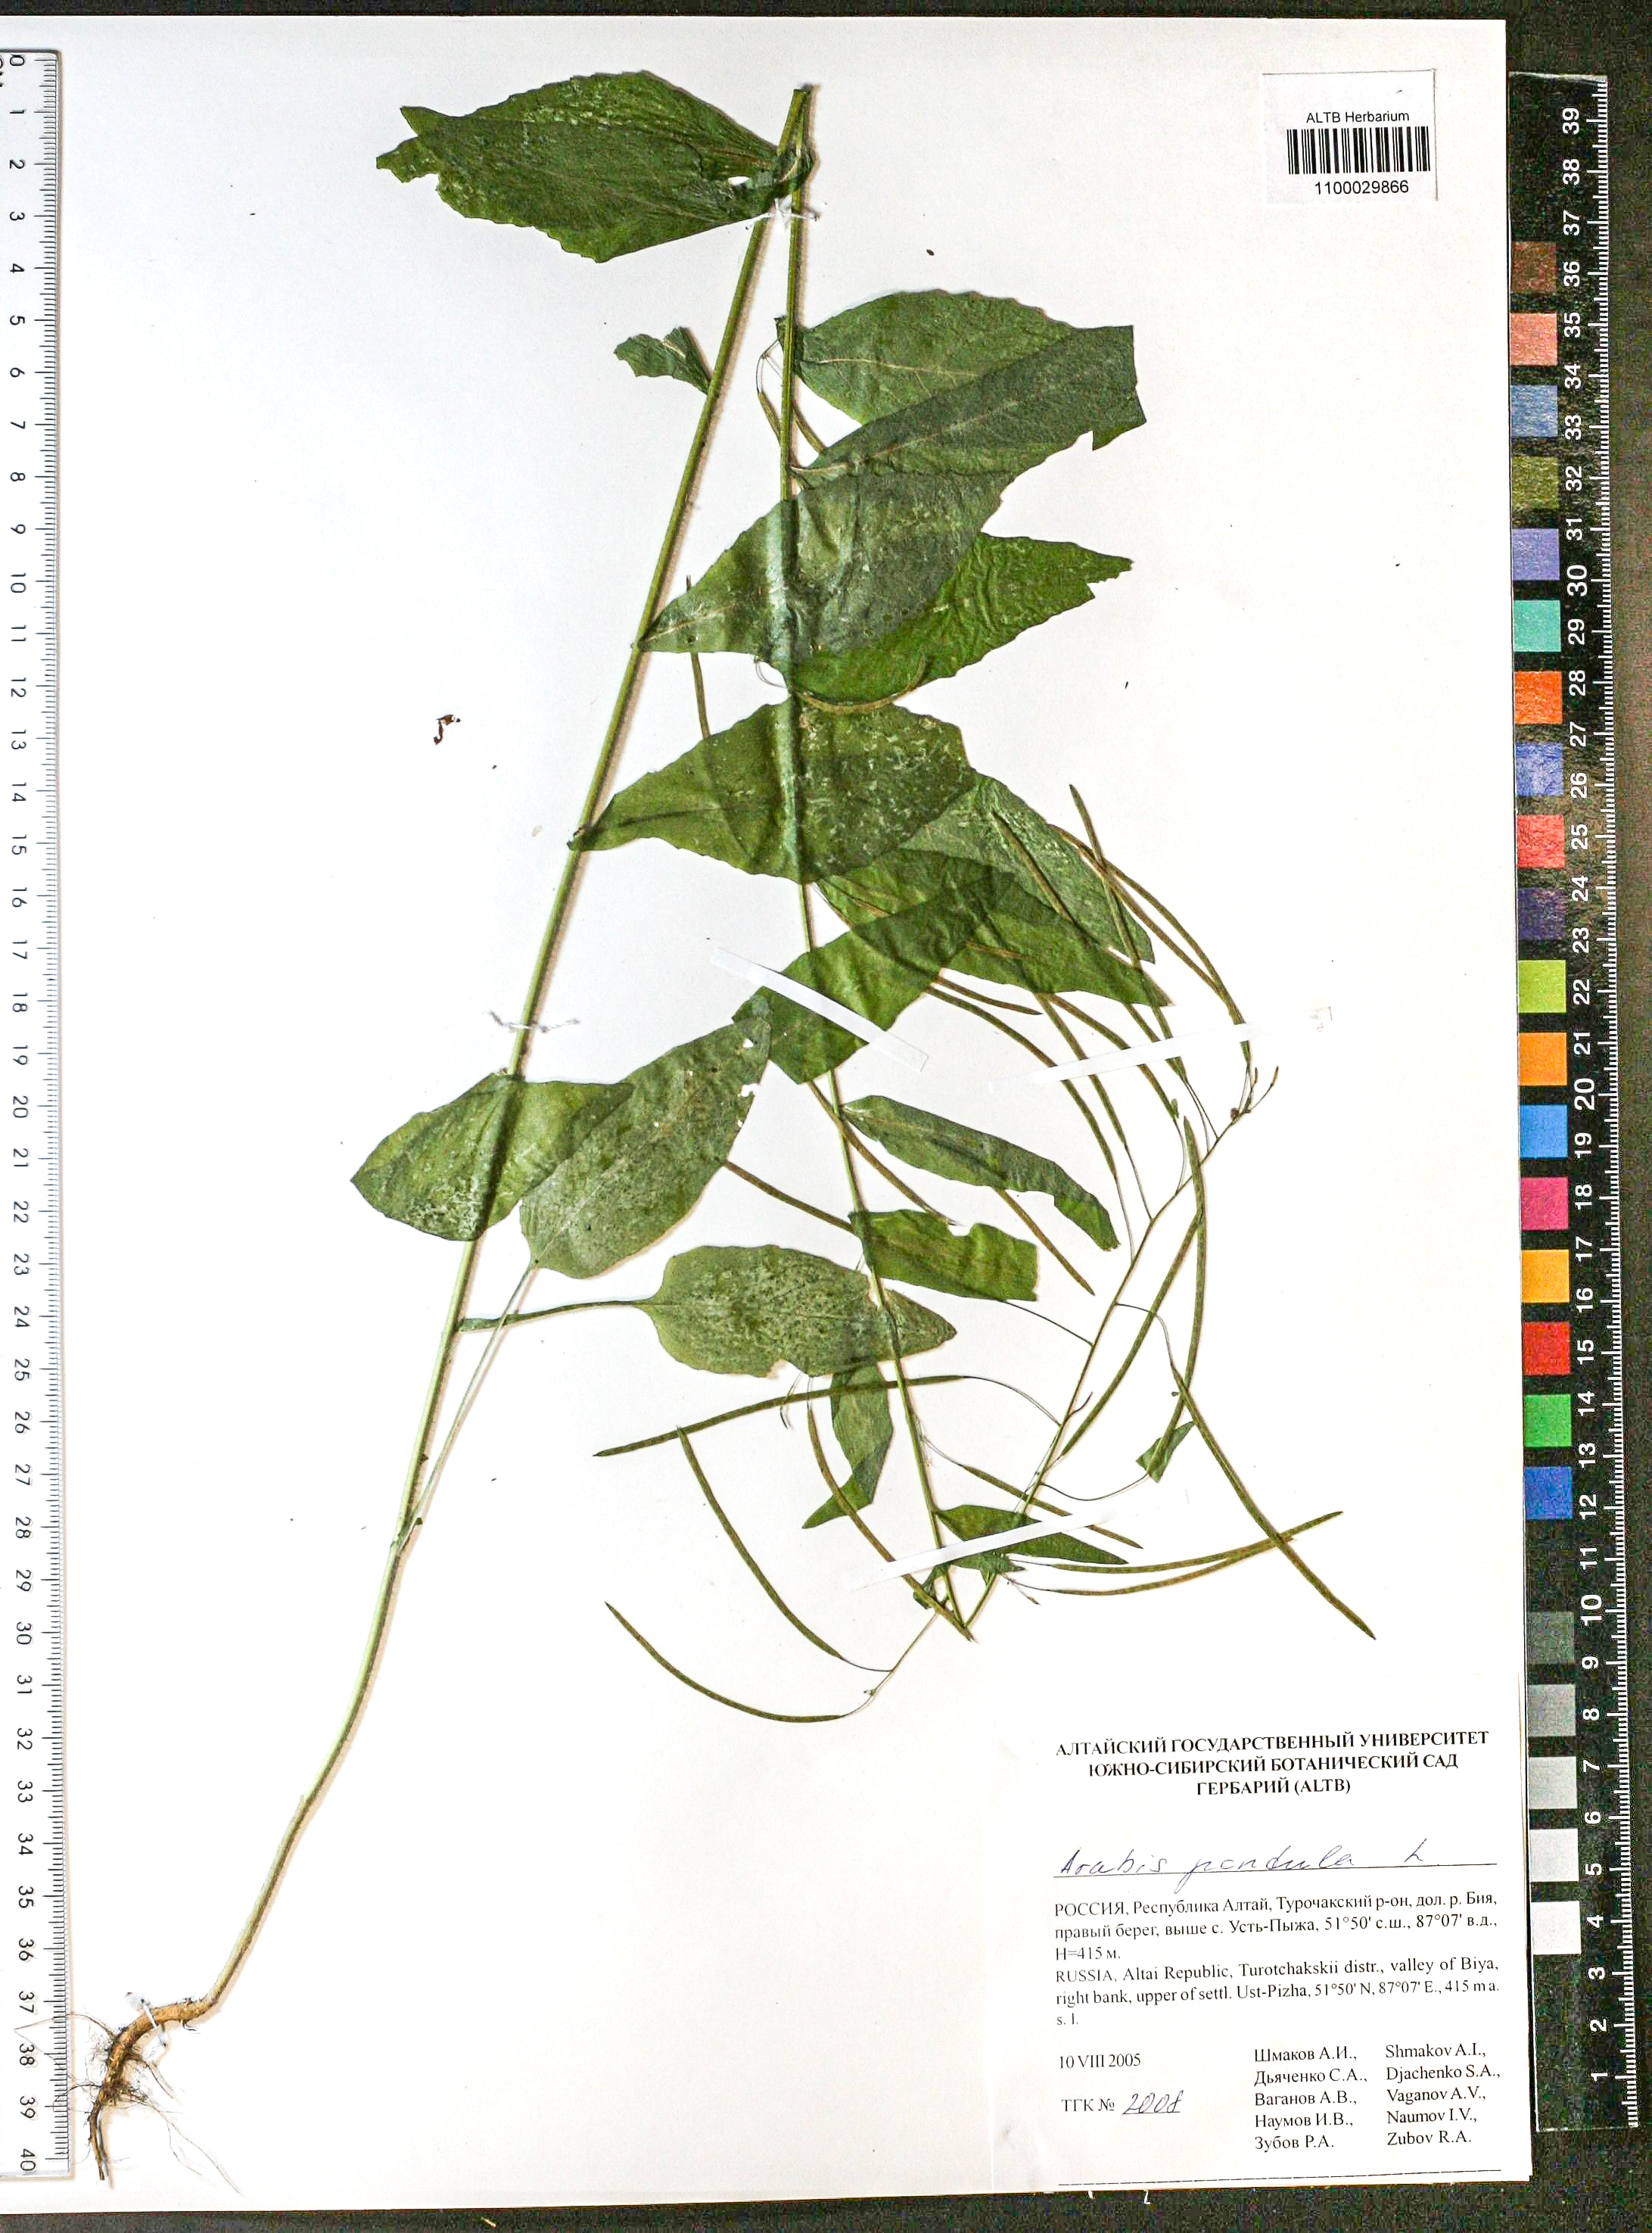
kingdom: Plantae
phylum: Tracheophyta
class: Magnoliopsida
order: Brassicales
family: Brassicaceae
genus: Catolobus
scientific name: Catolobus pendulus
